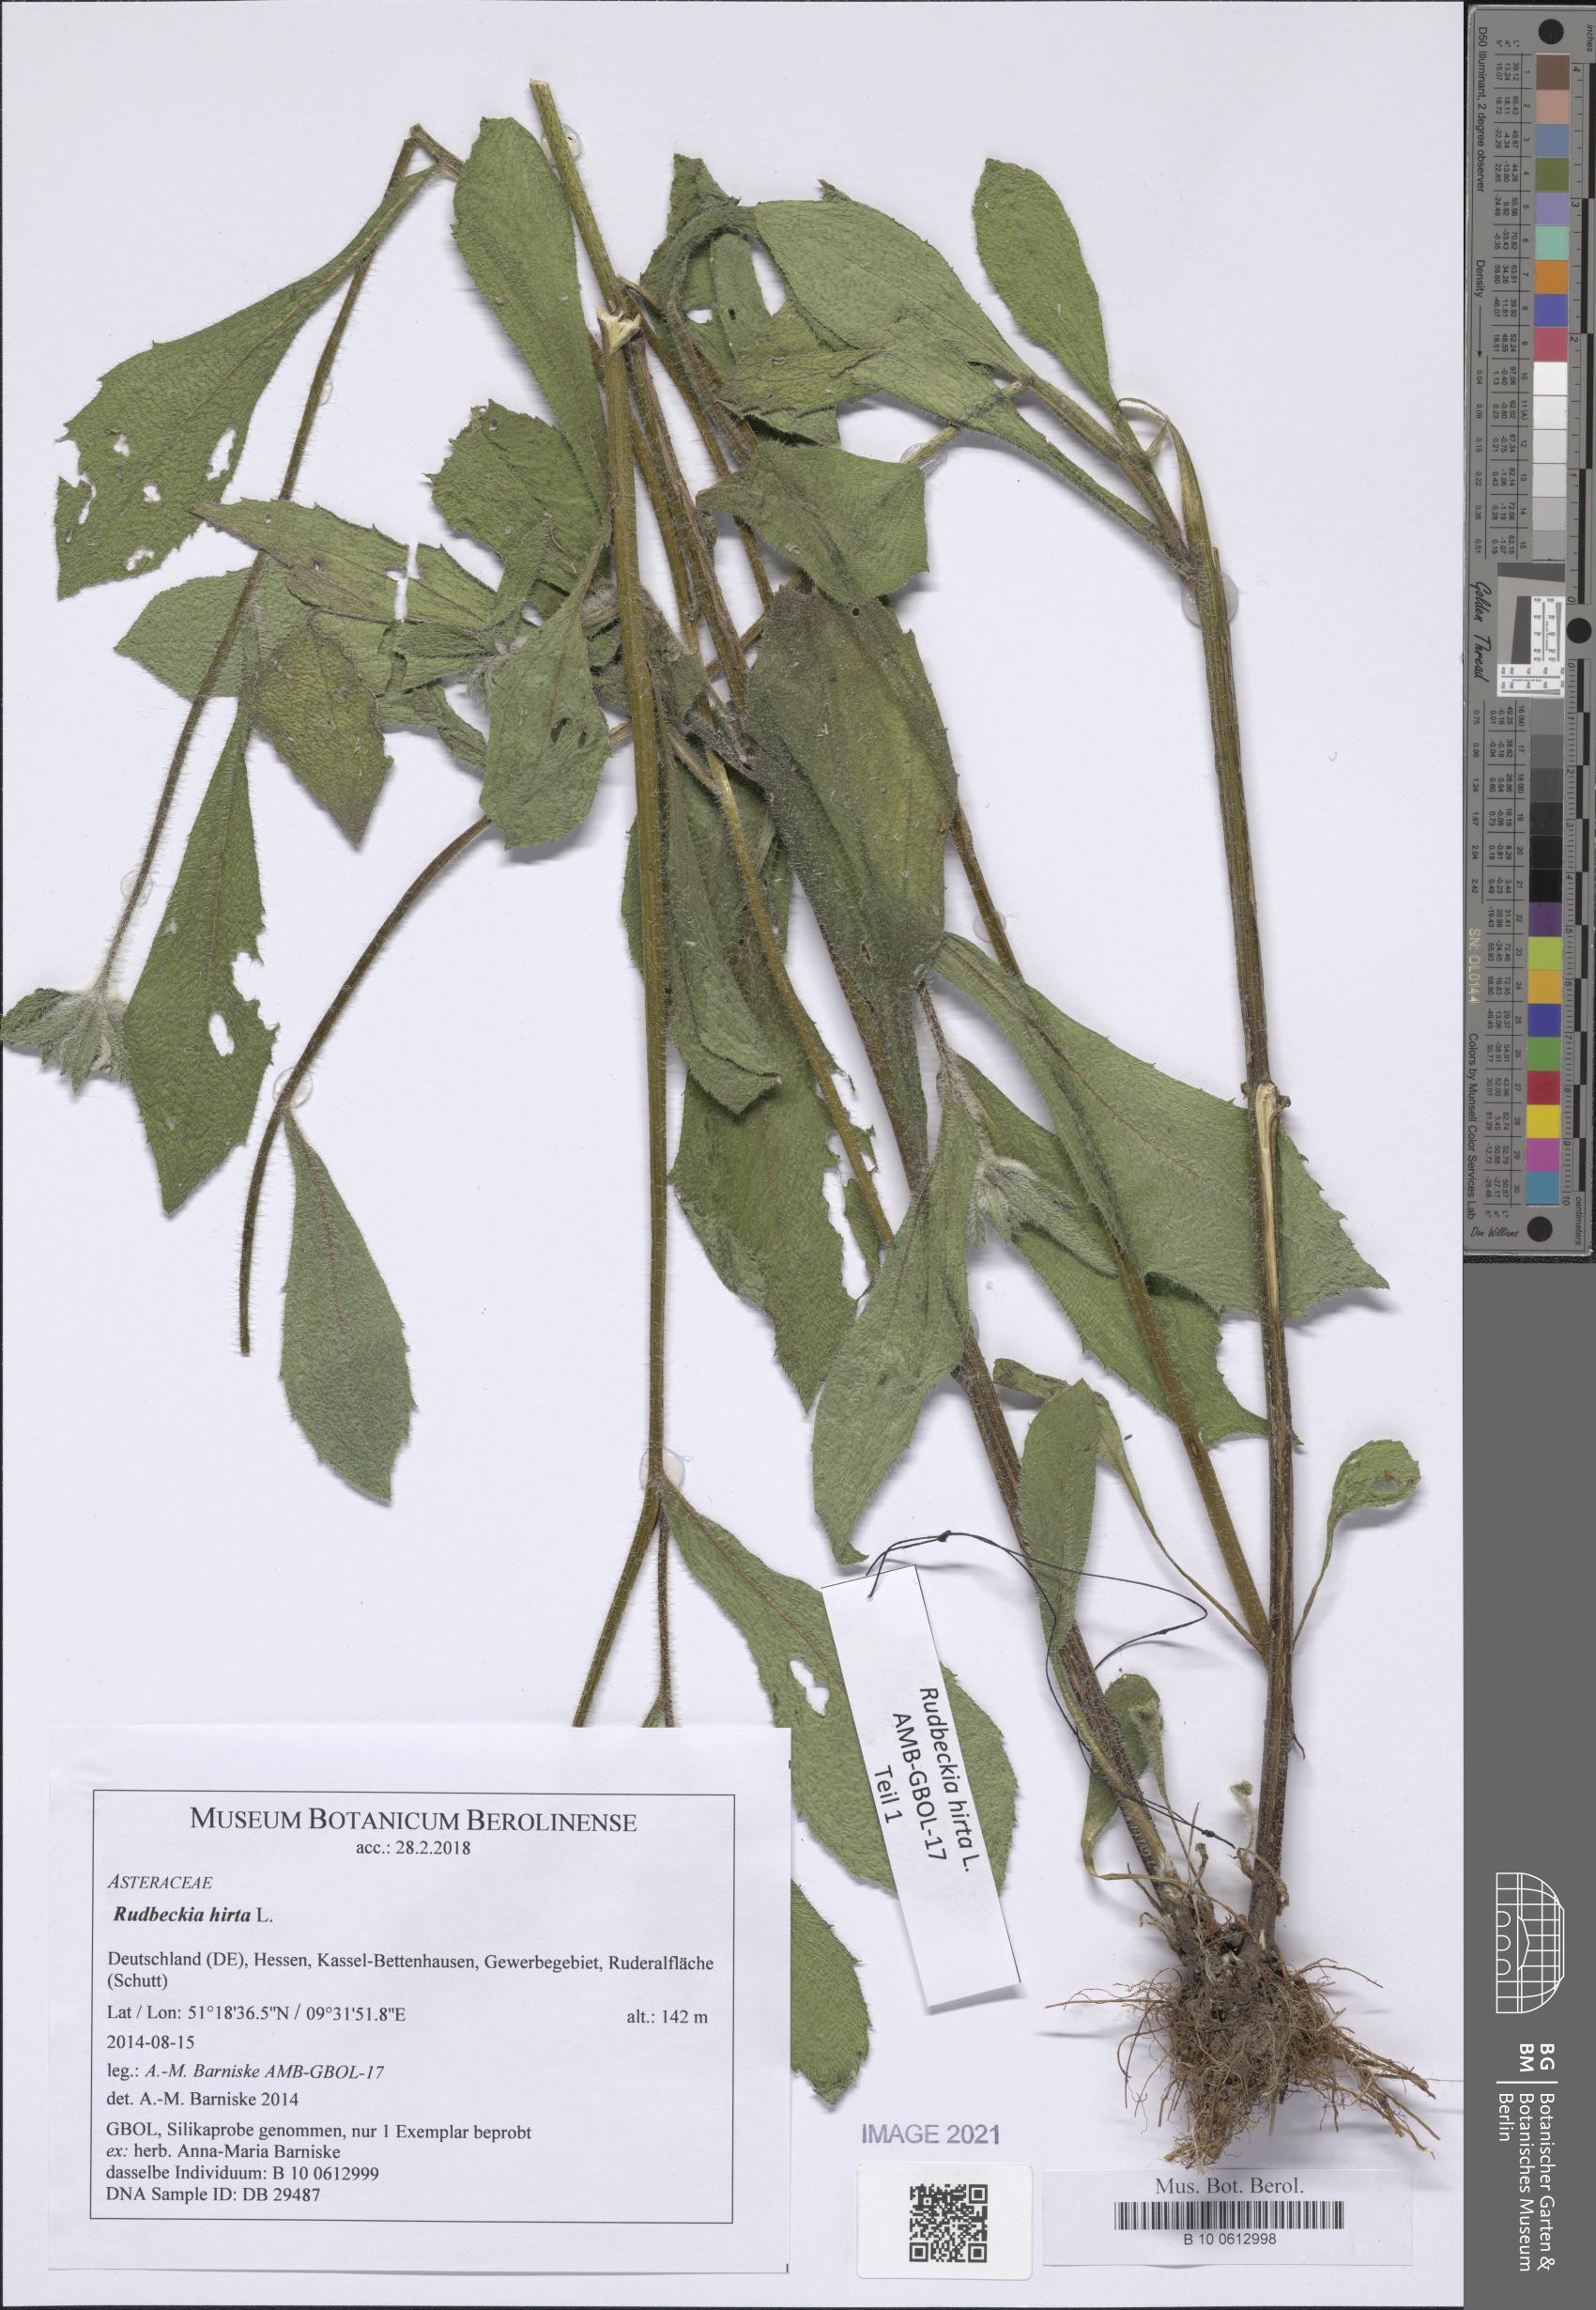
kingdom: Plantae
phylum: Tracheophyta
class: Magnoliopsida
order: Asterales
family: Asteraceae
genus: Rudbeckia
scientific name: Rudbeckia hirta
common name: Black-eyed-susan
